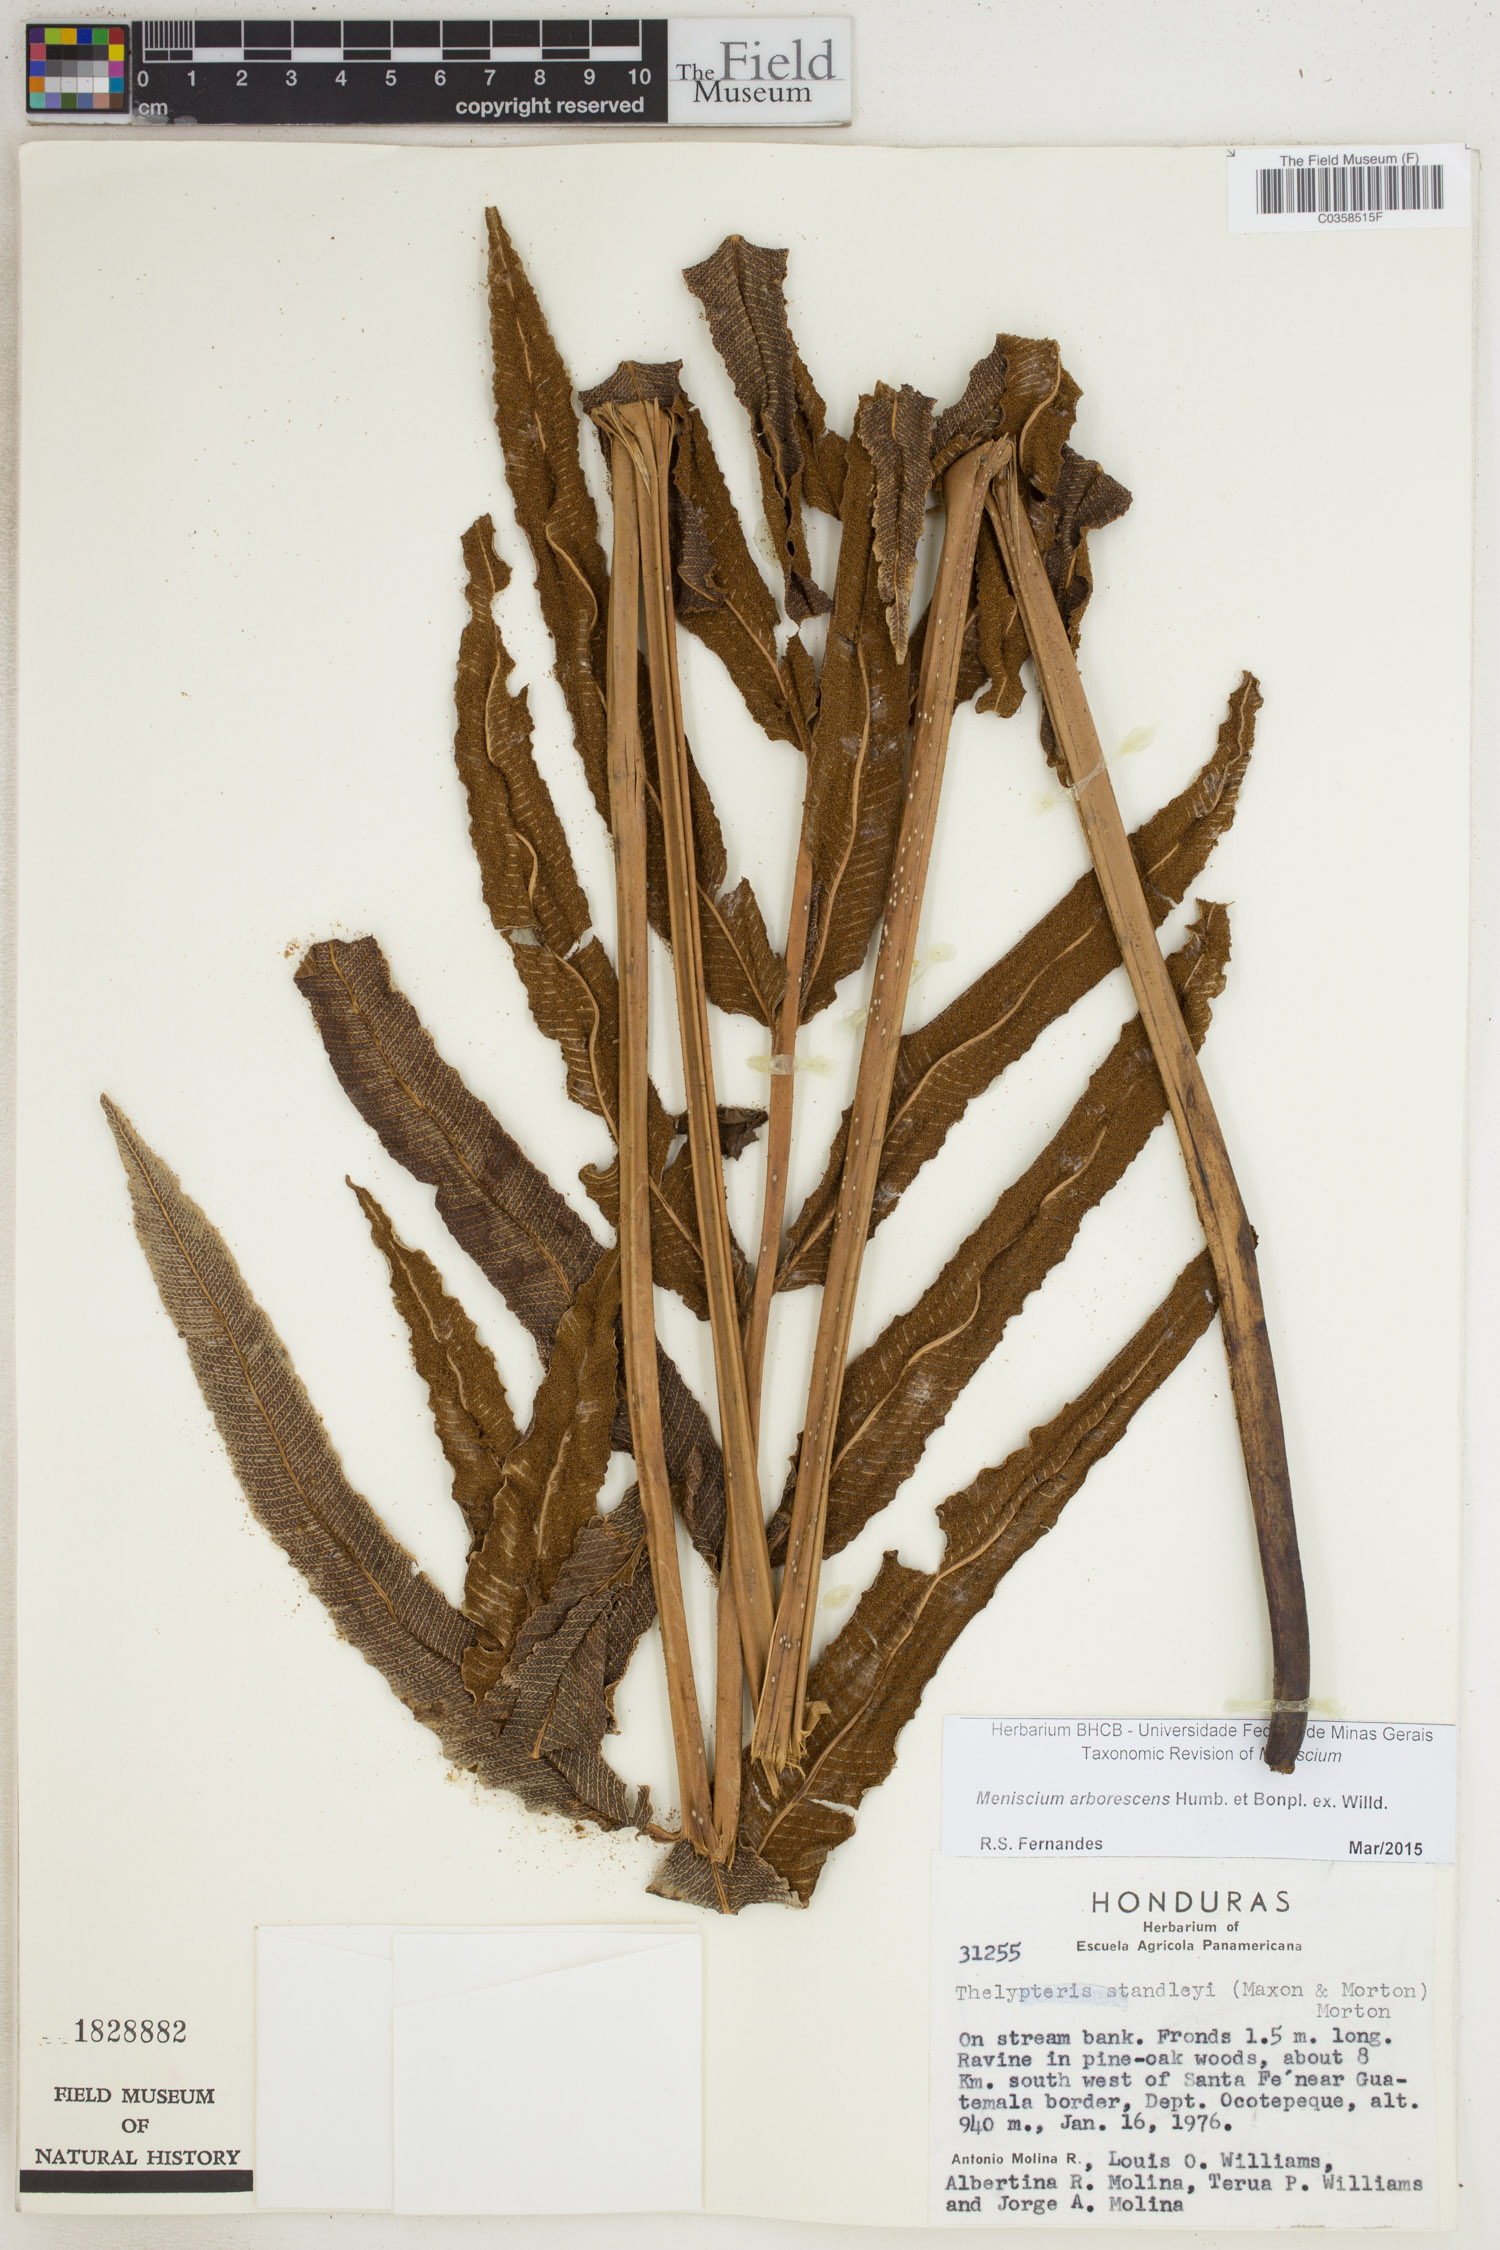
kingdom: Plantae
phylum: Tracheophyta
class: Polypodiopsida
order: Polypodiales
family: Thelypteridaceae
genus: Meniscium
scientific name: Meniscium arborescens
